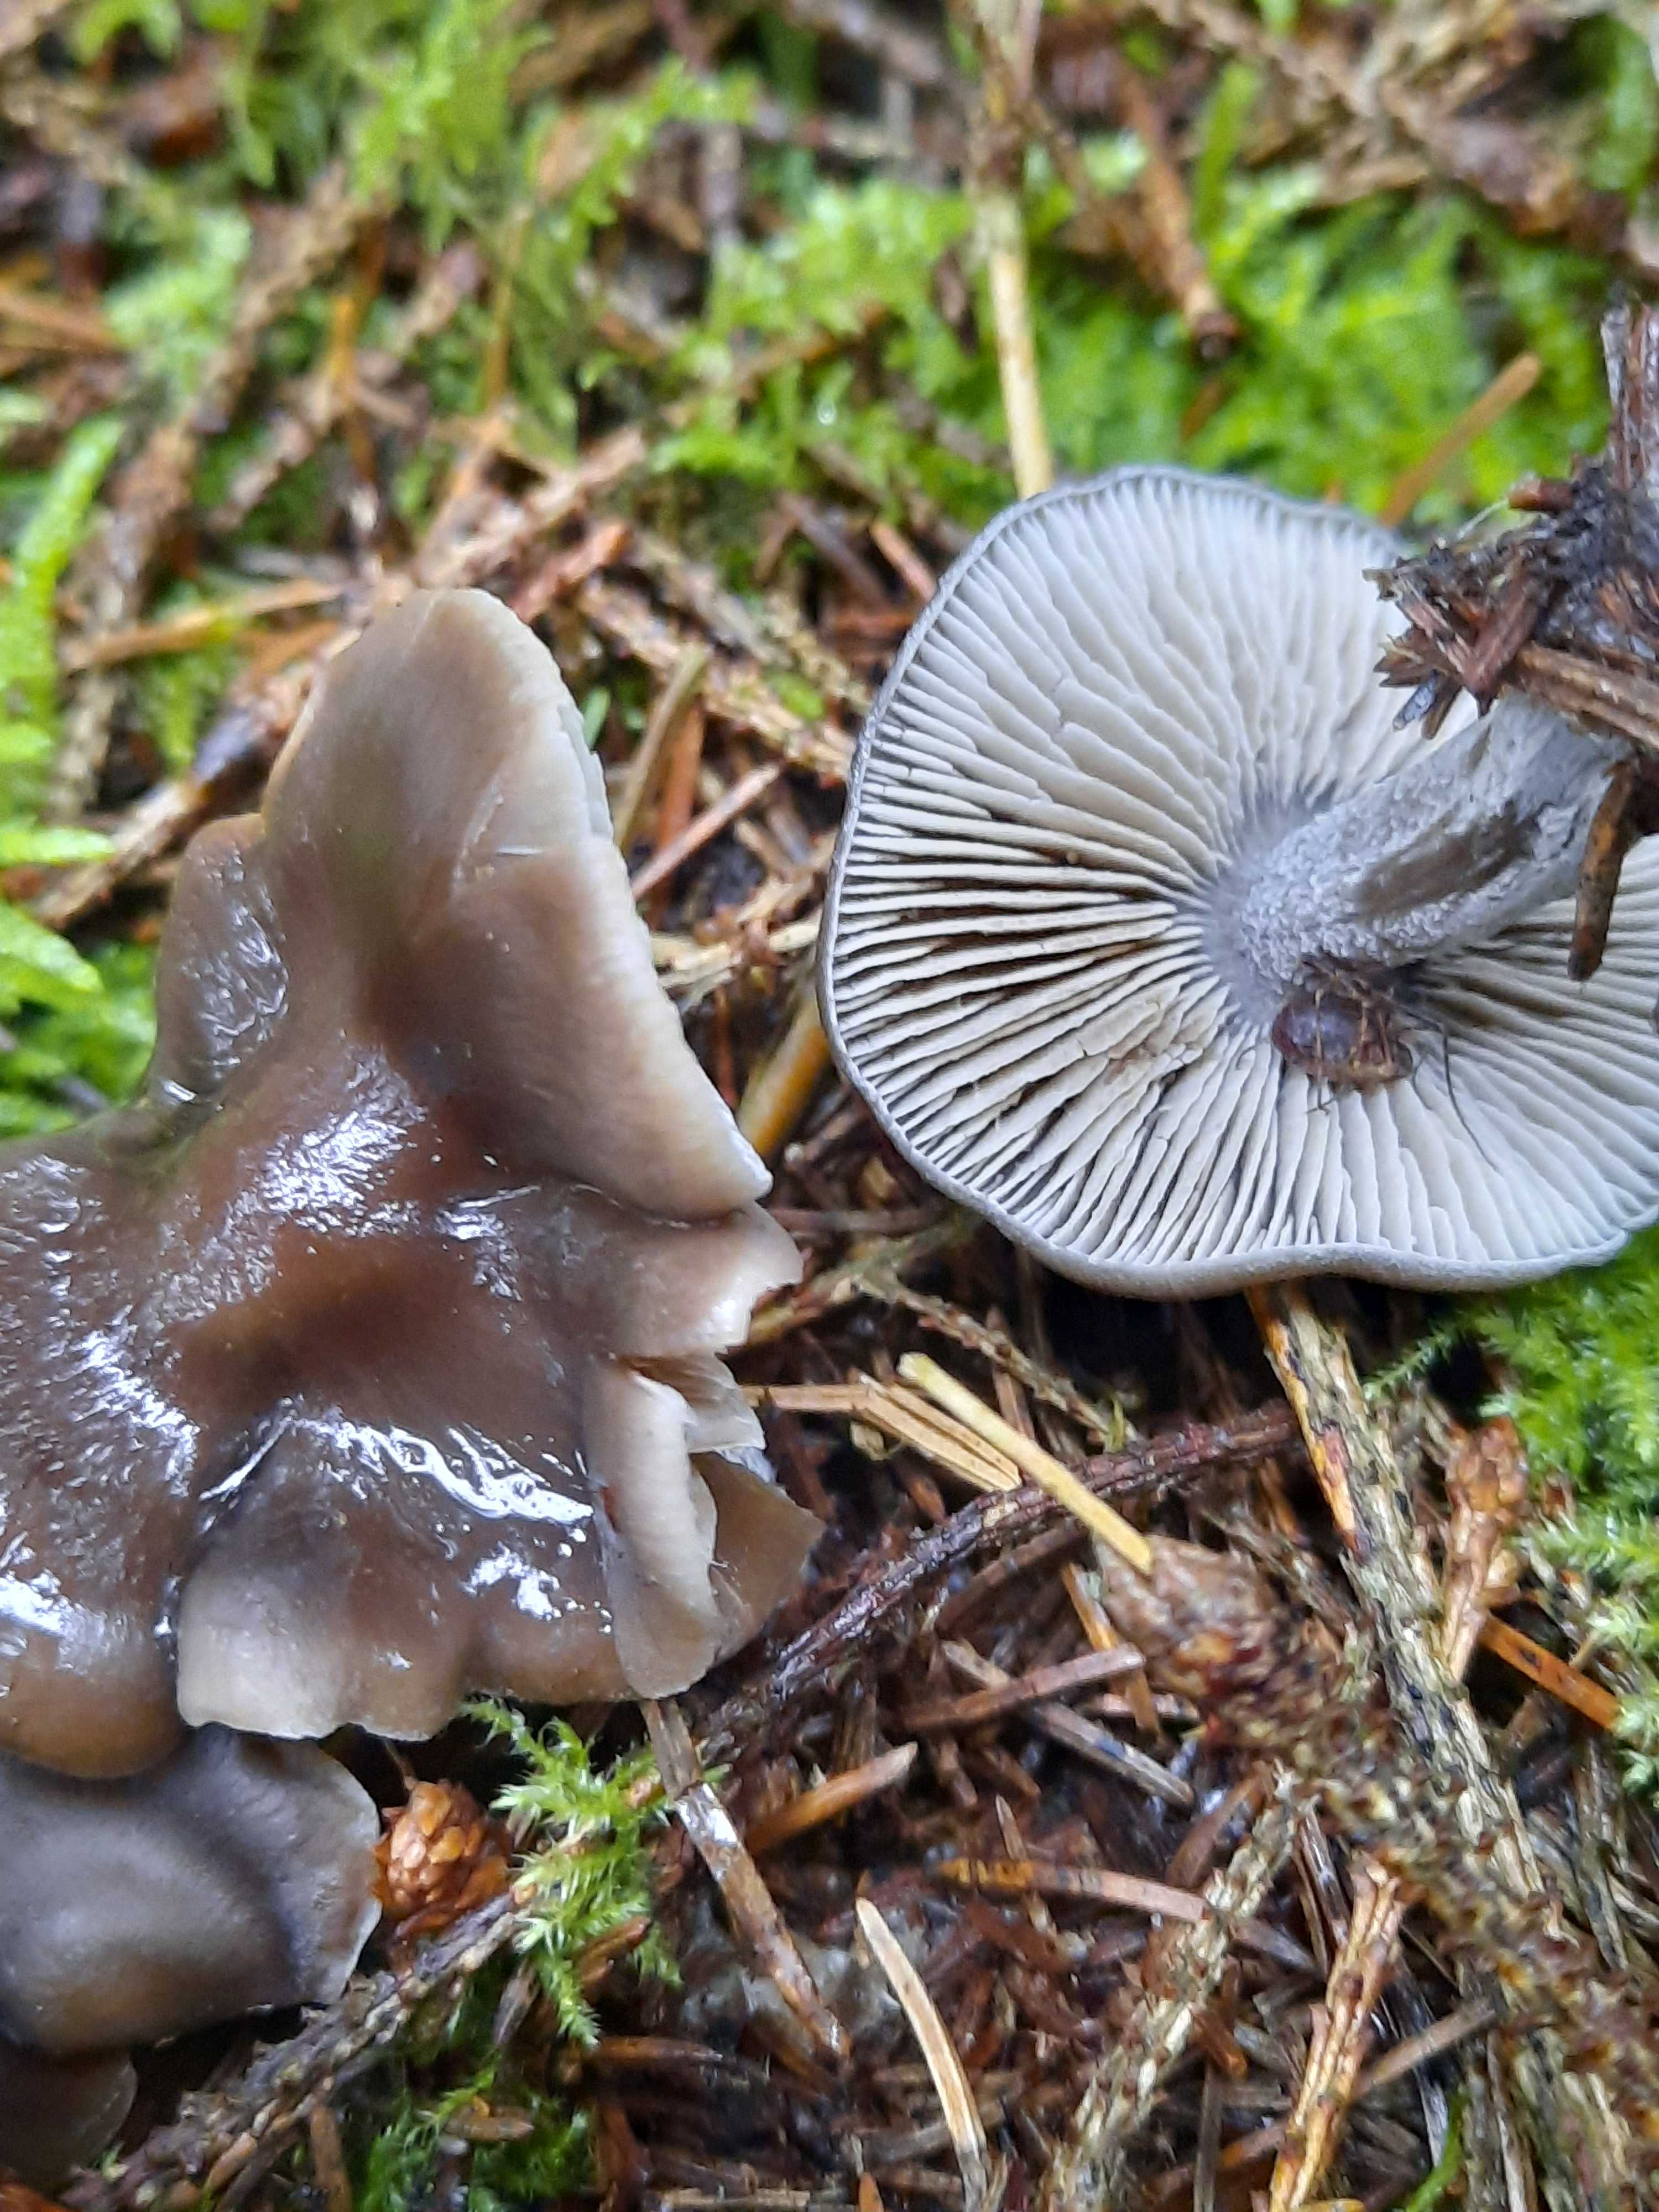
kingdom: Fungi
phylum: Basidiomycota
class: Agaricomycetes
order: Agaricales
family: Lyophyllaceae
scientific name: Lyophyllaceae
